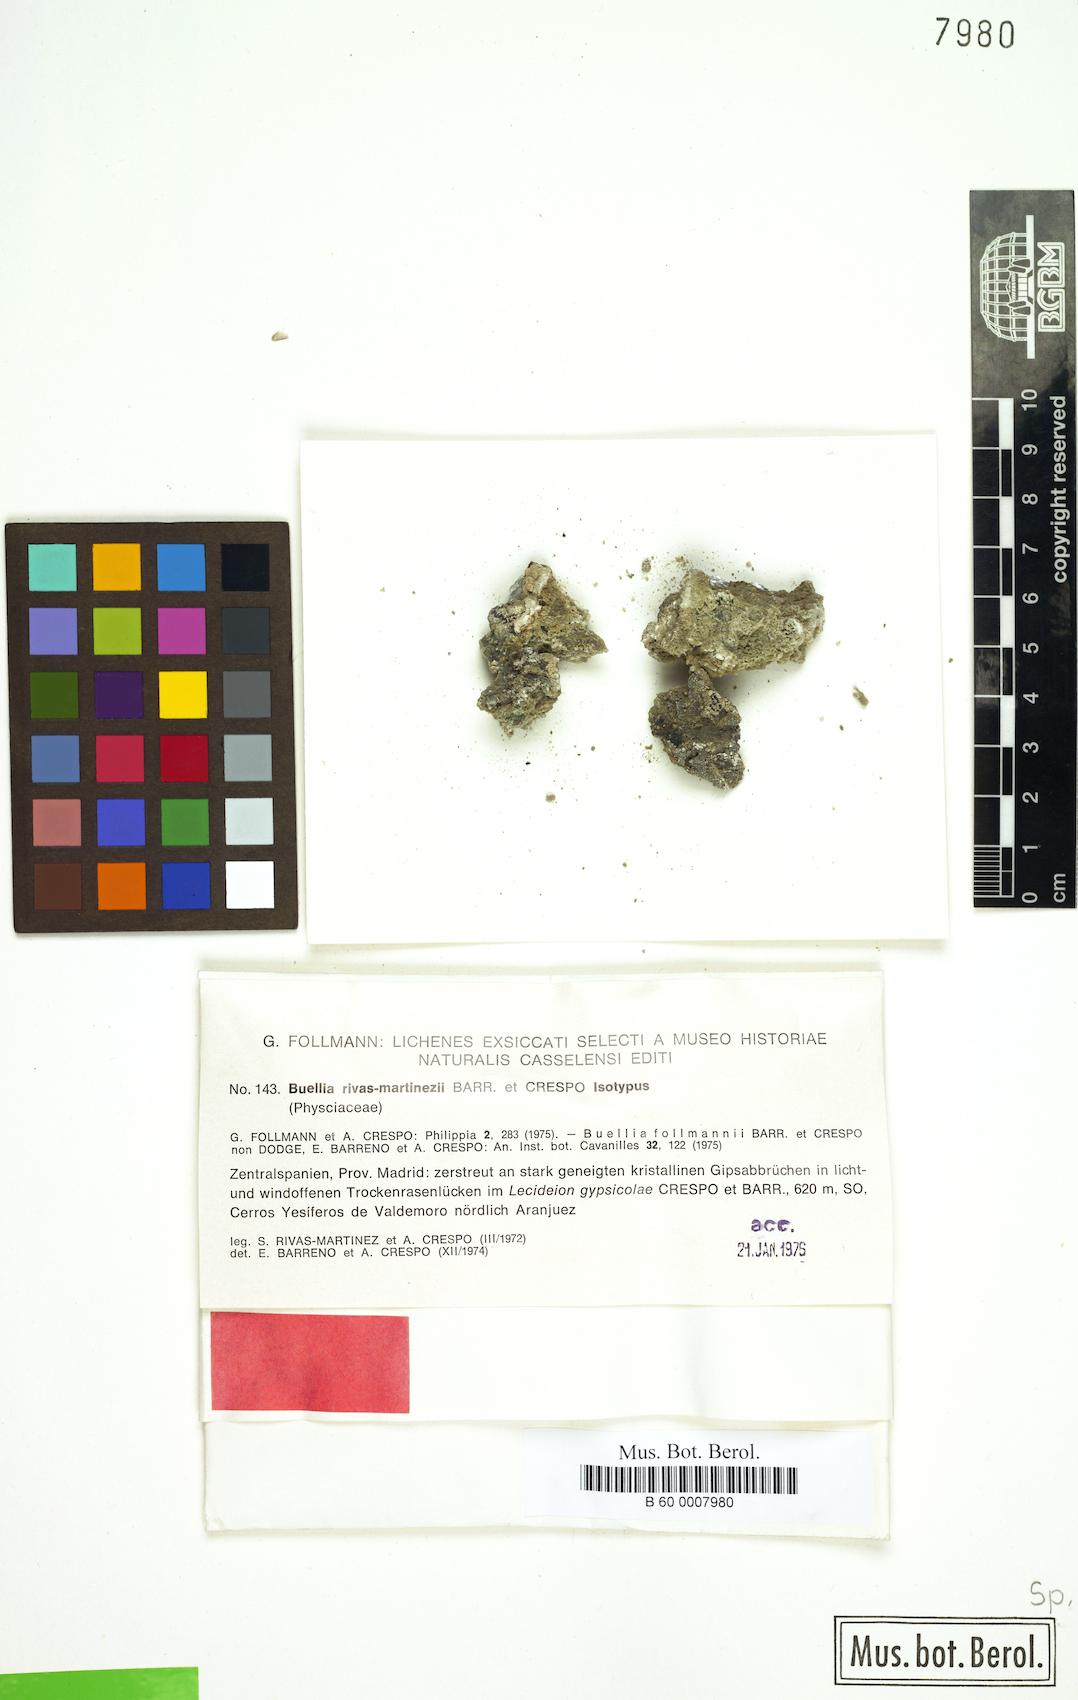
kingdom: Fungi
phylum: Ascomycota
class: Lecanoromycetes
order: Caliciales
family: Caliciaceae
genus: Diplotomma
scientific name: Diplotomma rivas-martinezii
